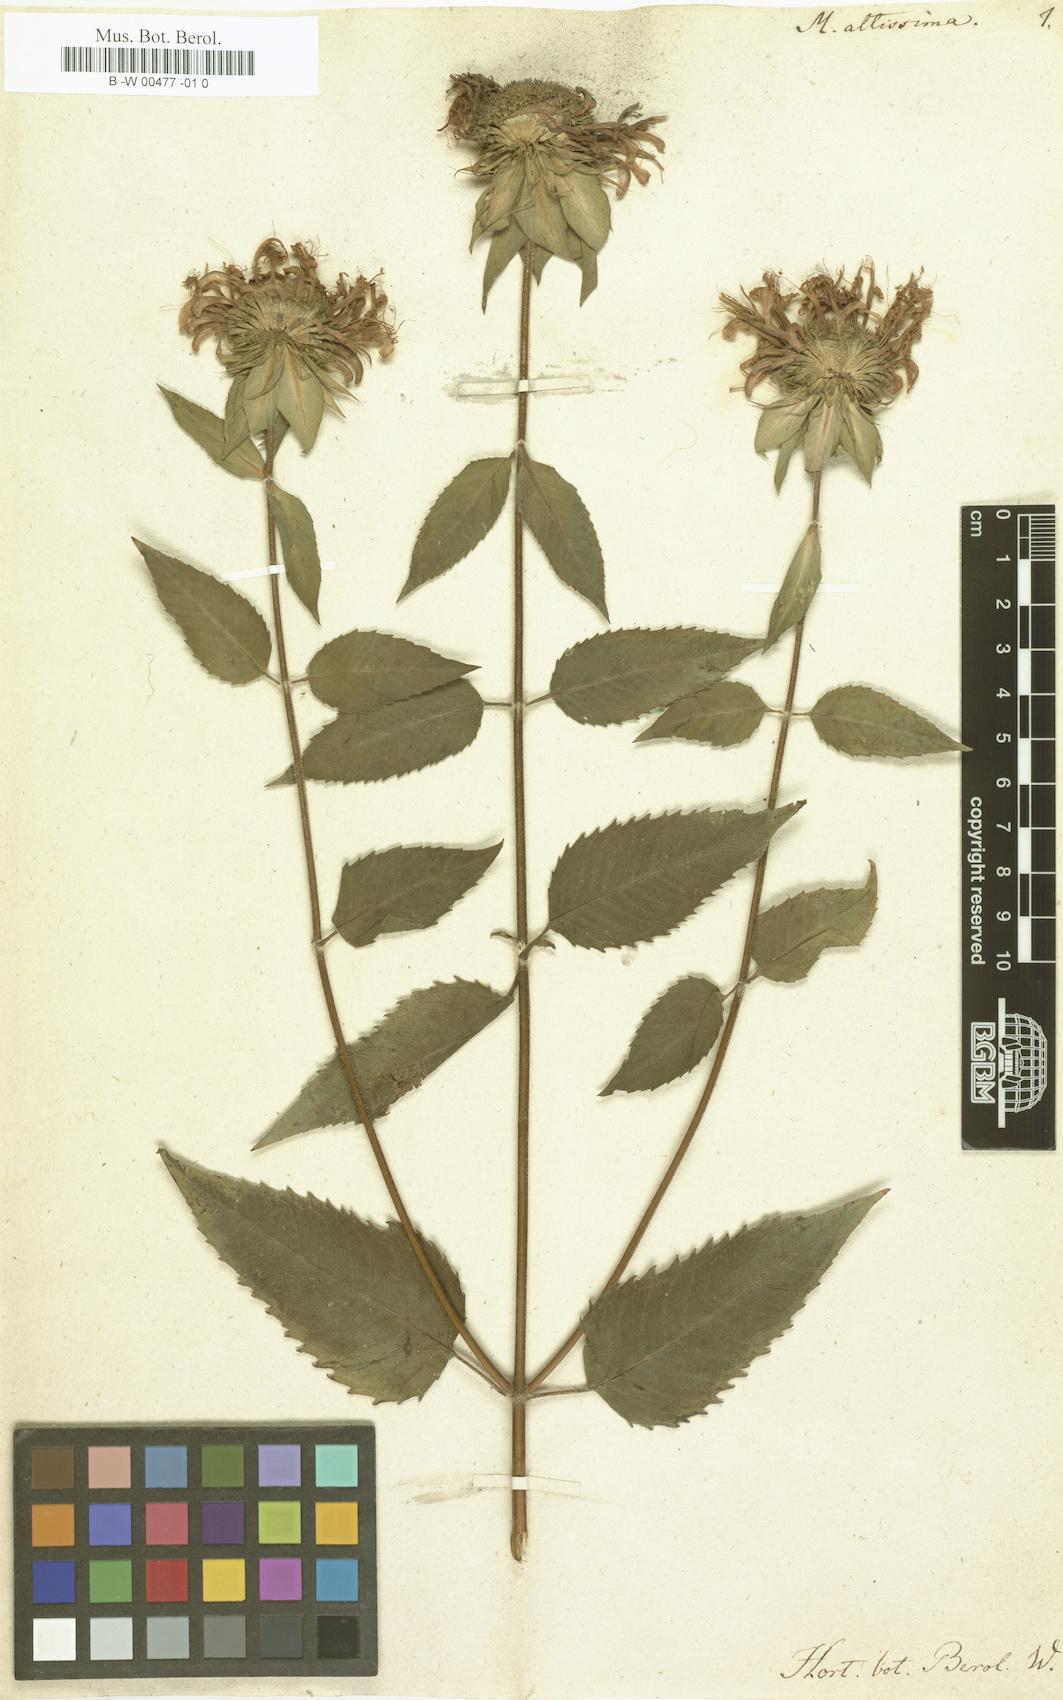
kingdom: Plantae
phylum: Tracheophyta
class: Magnoliopsida
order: Lamiales
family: Lamiaceae
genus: Monarda
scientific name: Monarda clinopodia
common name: Basil beebalm
